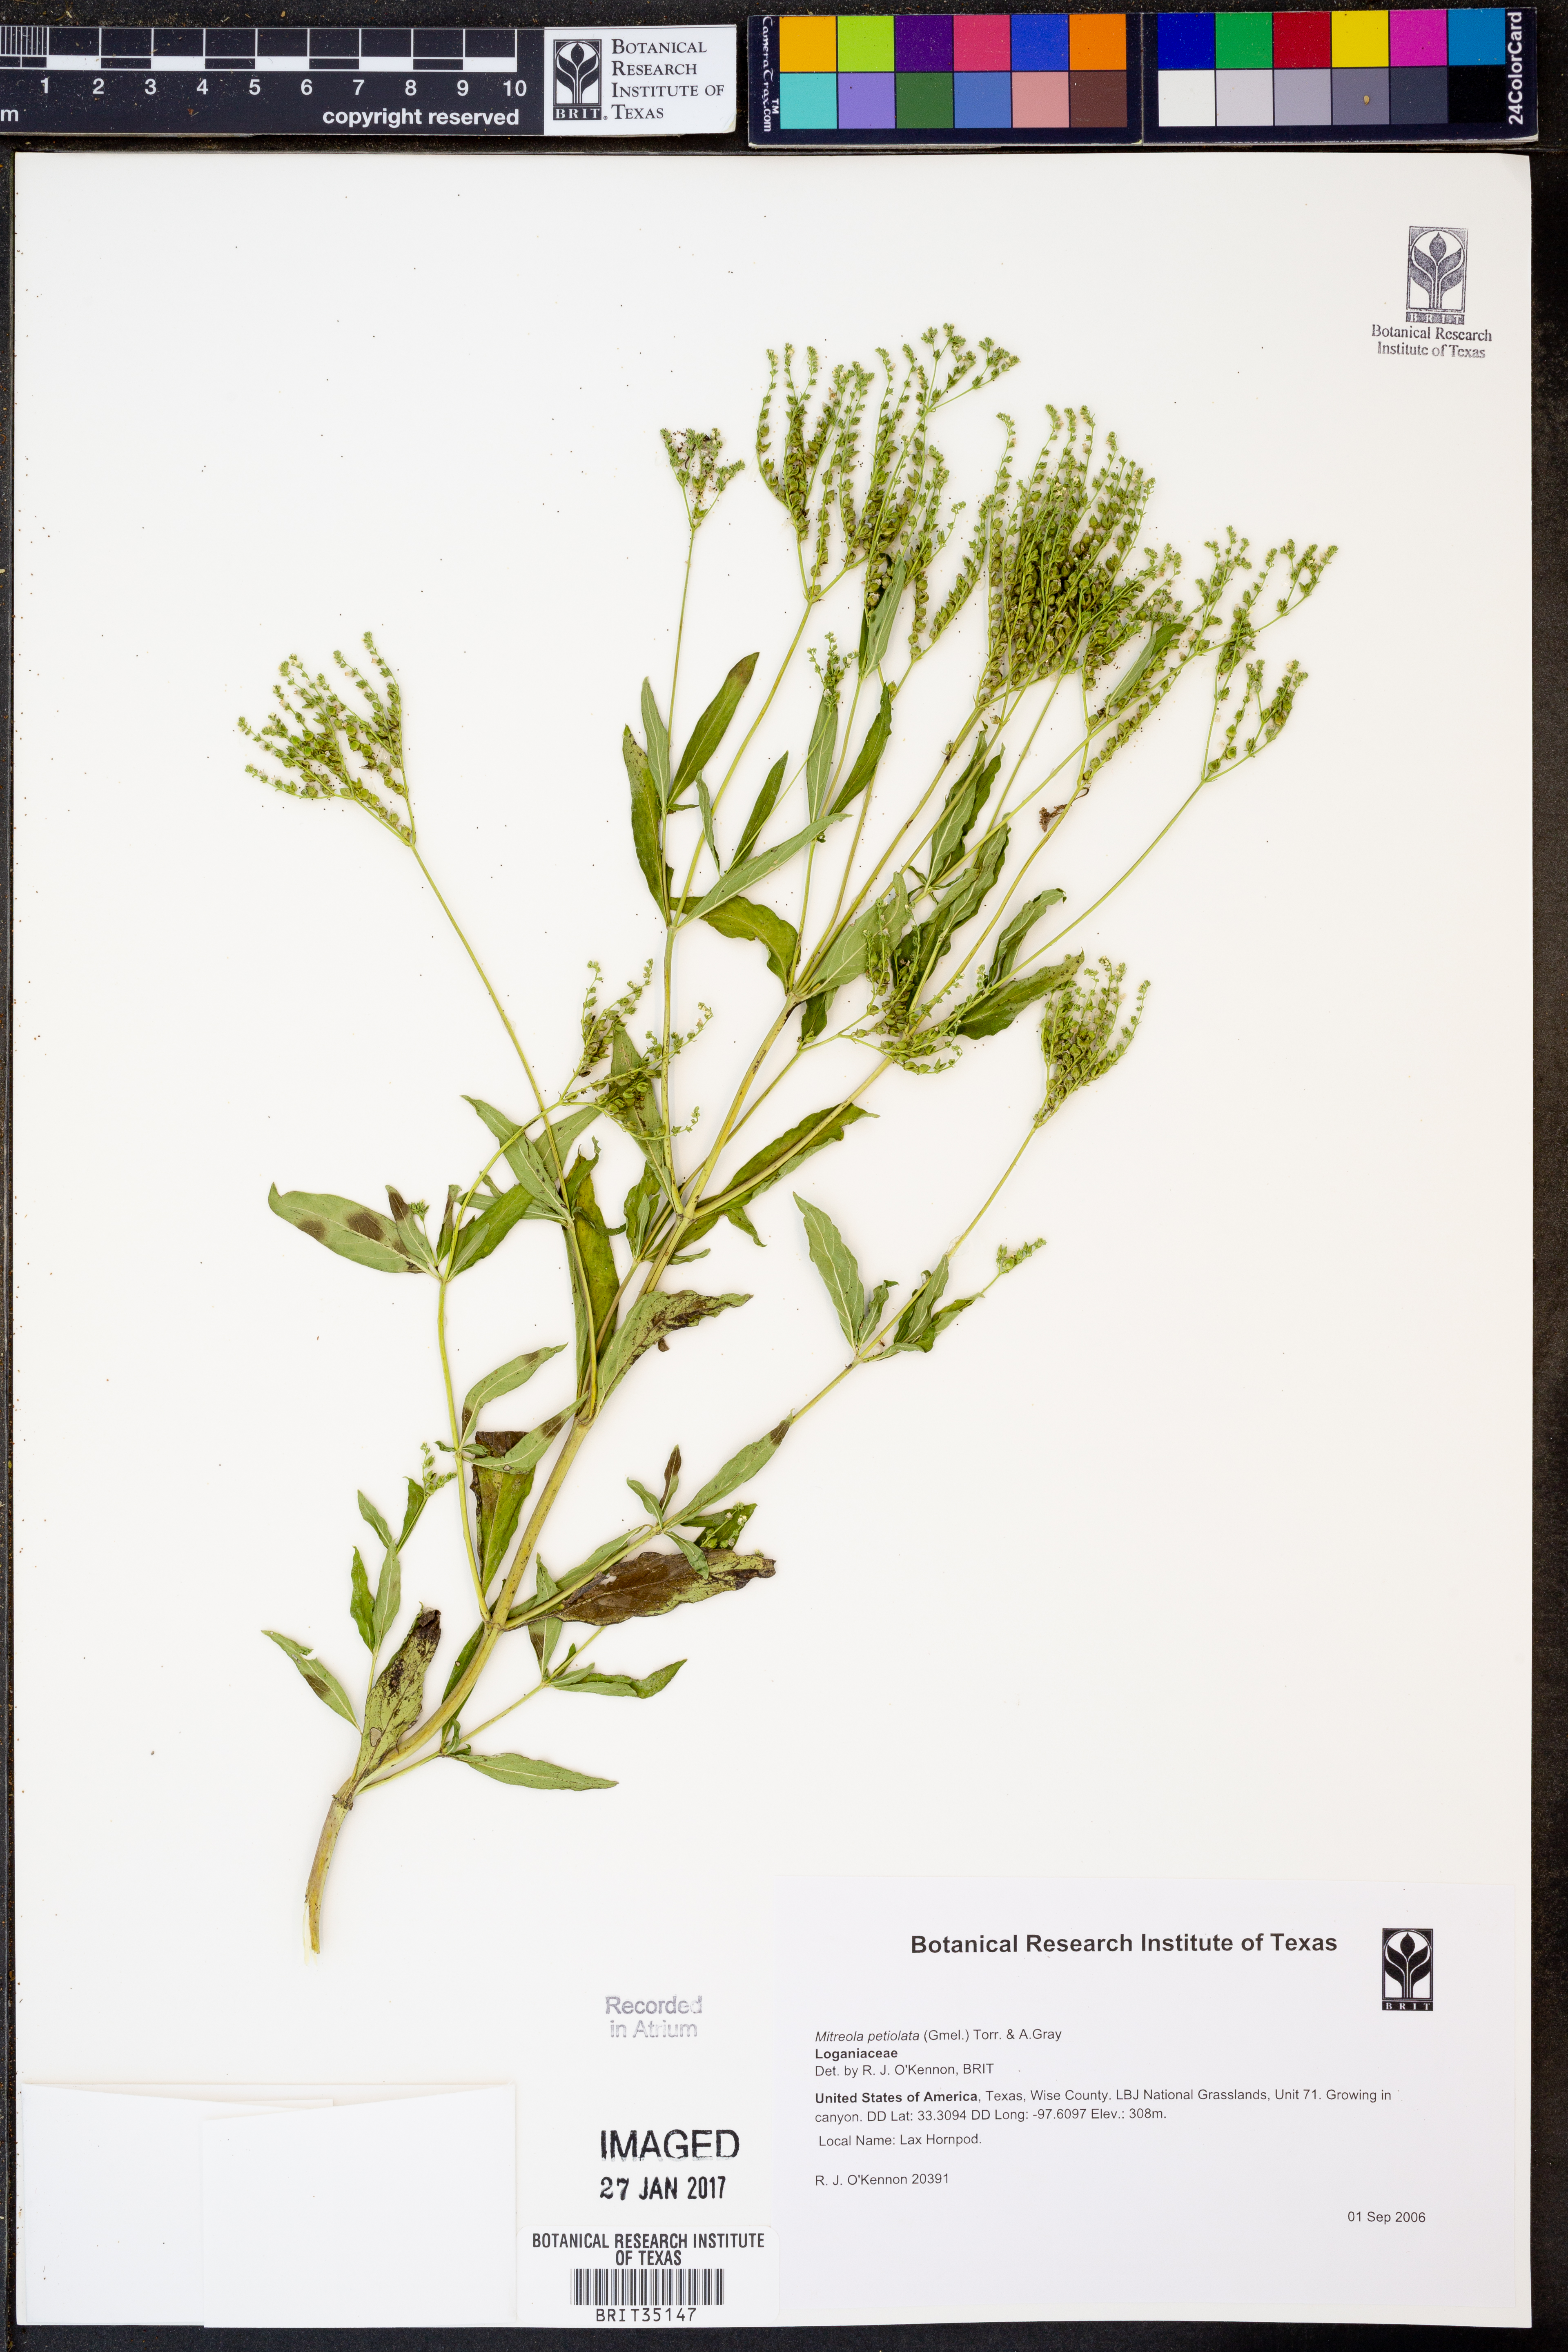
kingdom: Plantae
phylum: Tracheophyta
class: Magnoliopsida
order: Gentianales
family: Loganiaceae
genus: Mitreola
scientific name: Mitreola petiolata
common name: Lax hornpod
